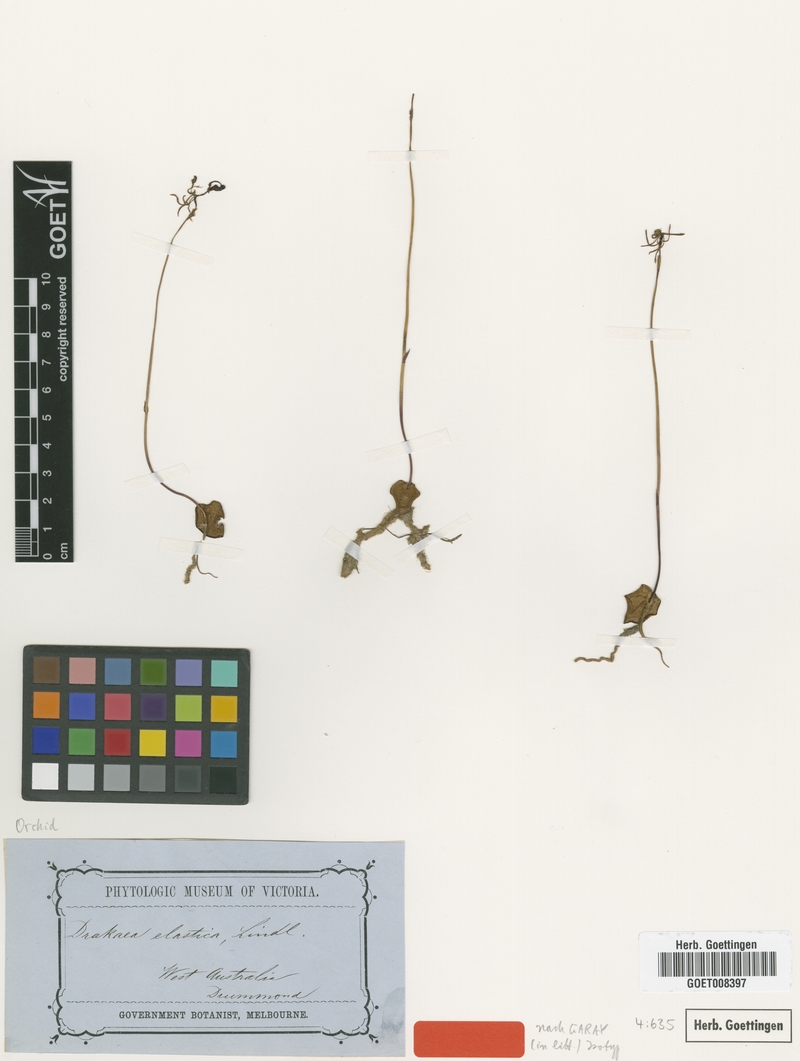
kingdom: Plantae
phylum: Tracheophyta
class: Liliopsida
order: Asparagales
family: Orchidaceae
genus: Drakaea
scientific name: Drakaea elastica
